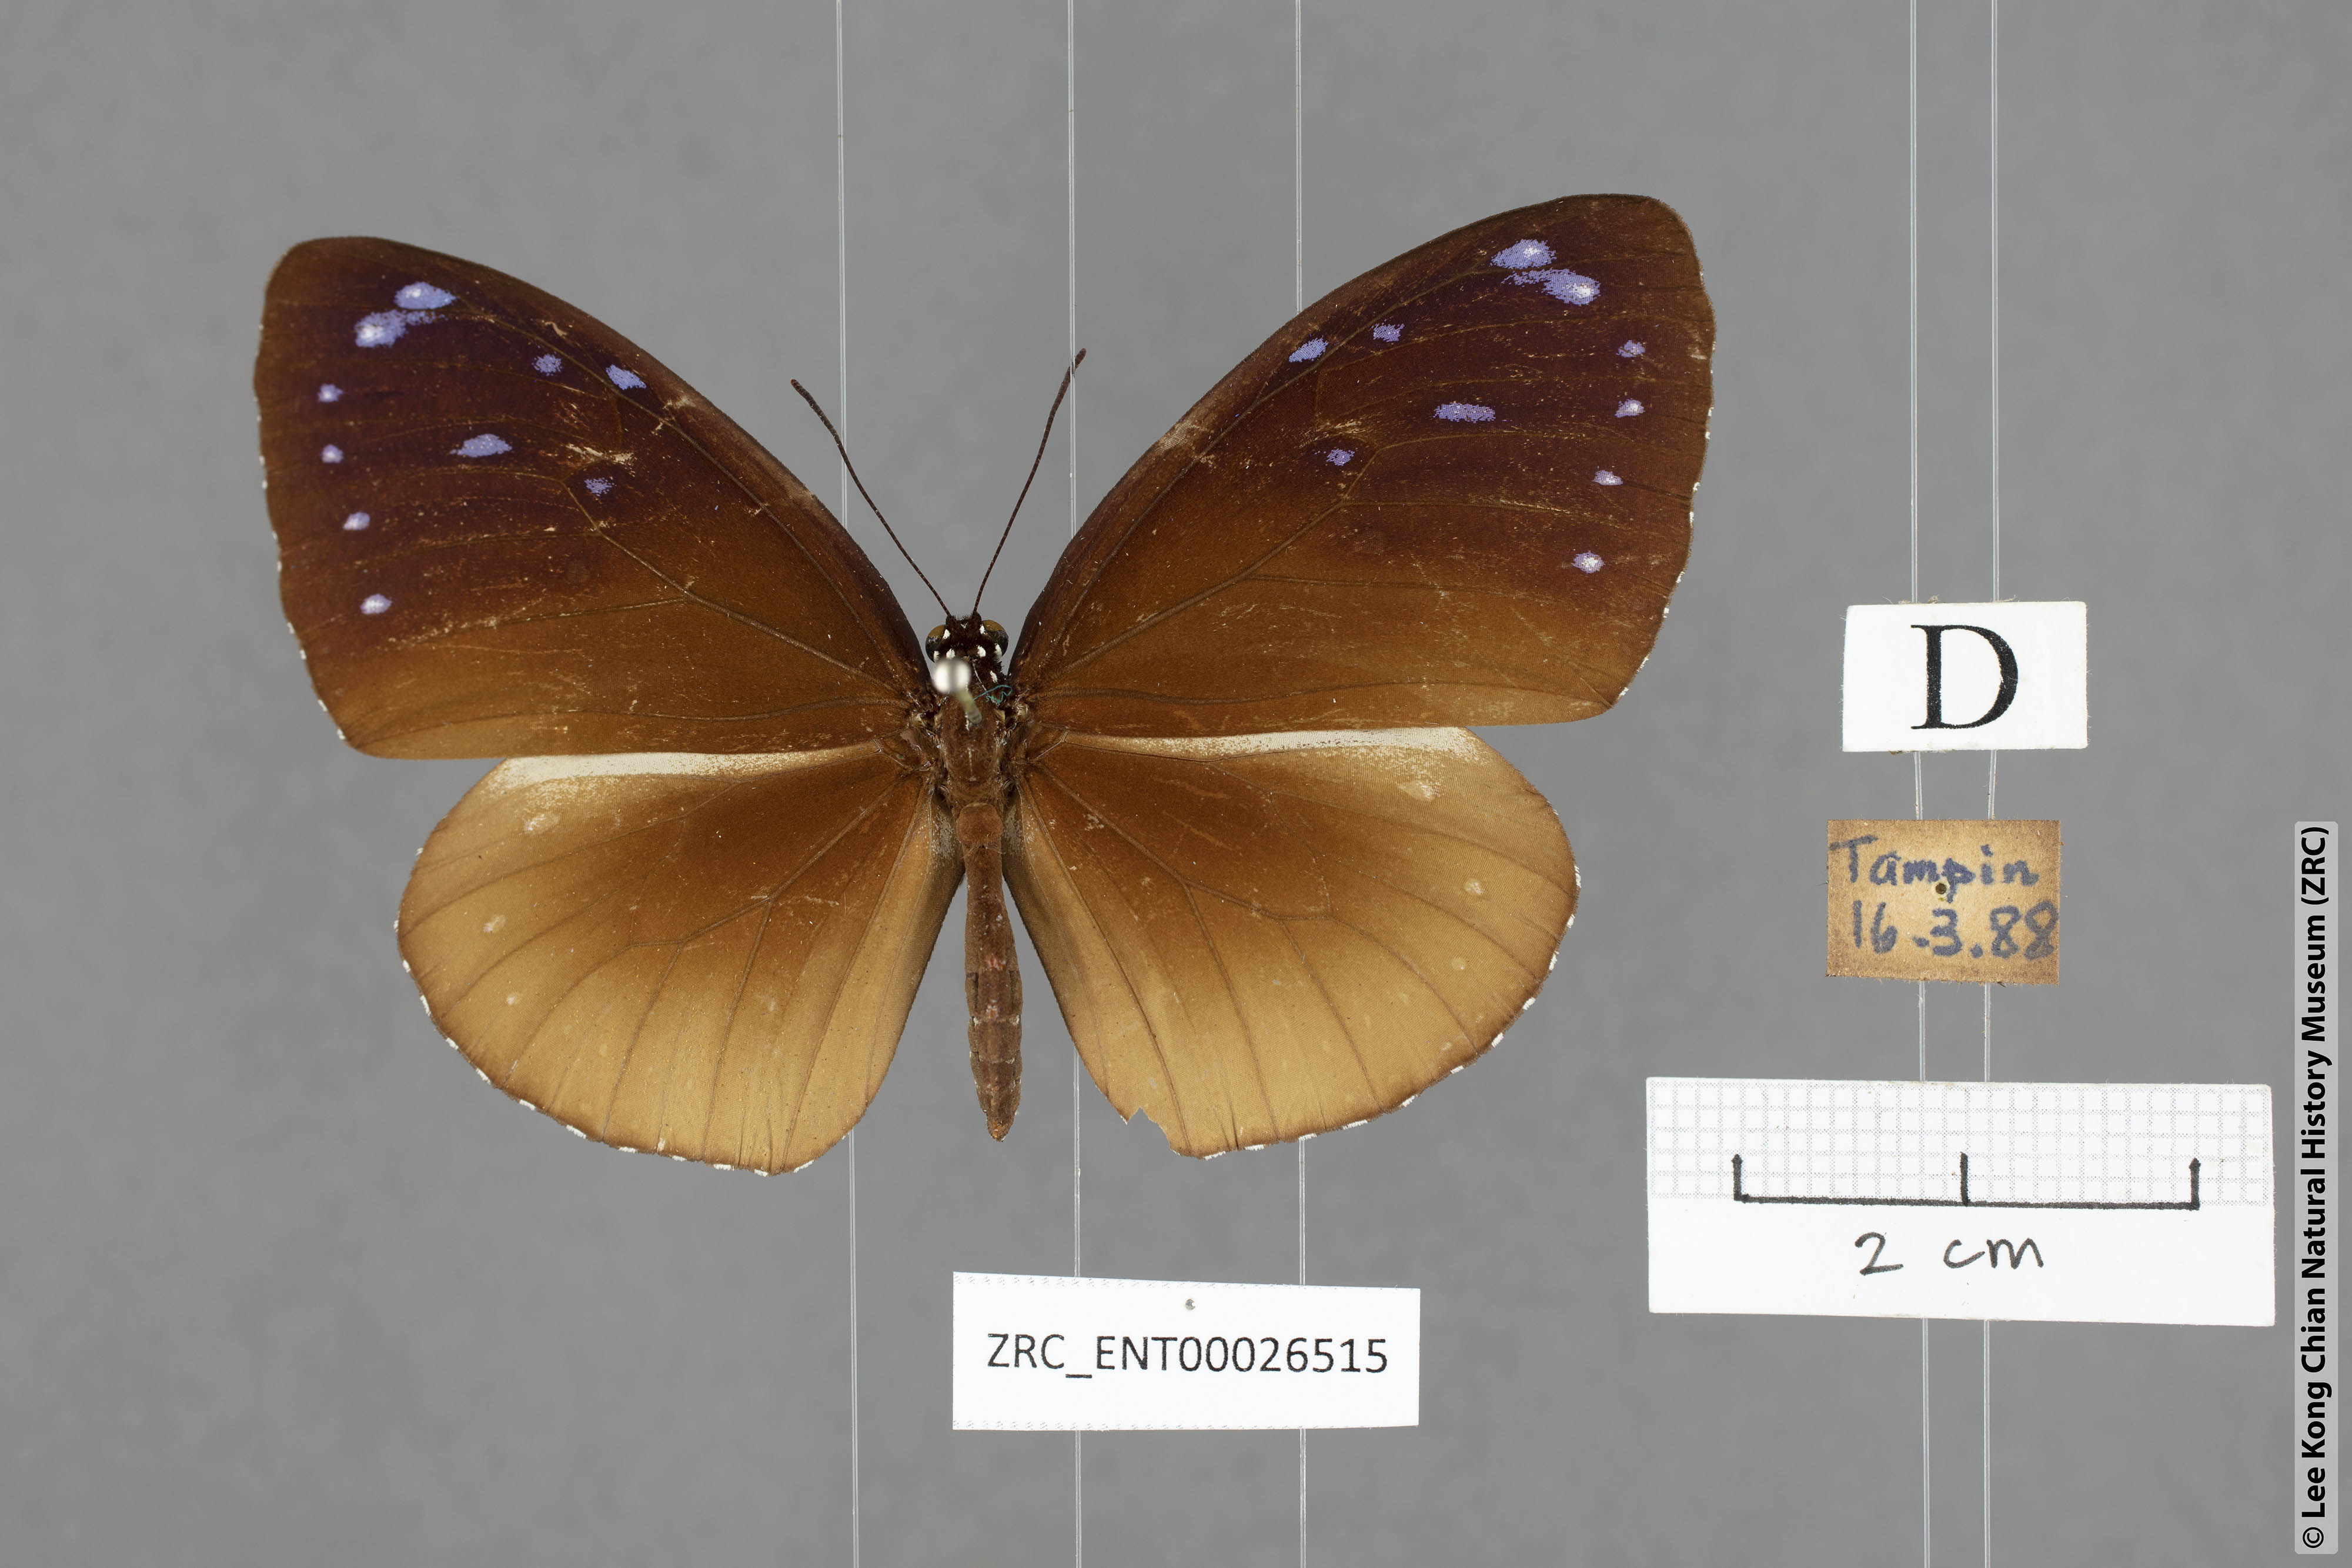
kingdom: Animalia
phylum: Arthropoda
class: Insecta
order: Lepidoptera
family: Nymphalidae
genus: Euploea
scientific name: Euploea tulliolus
